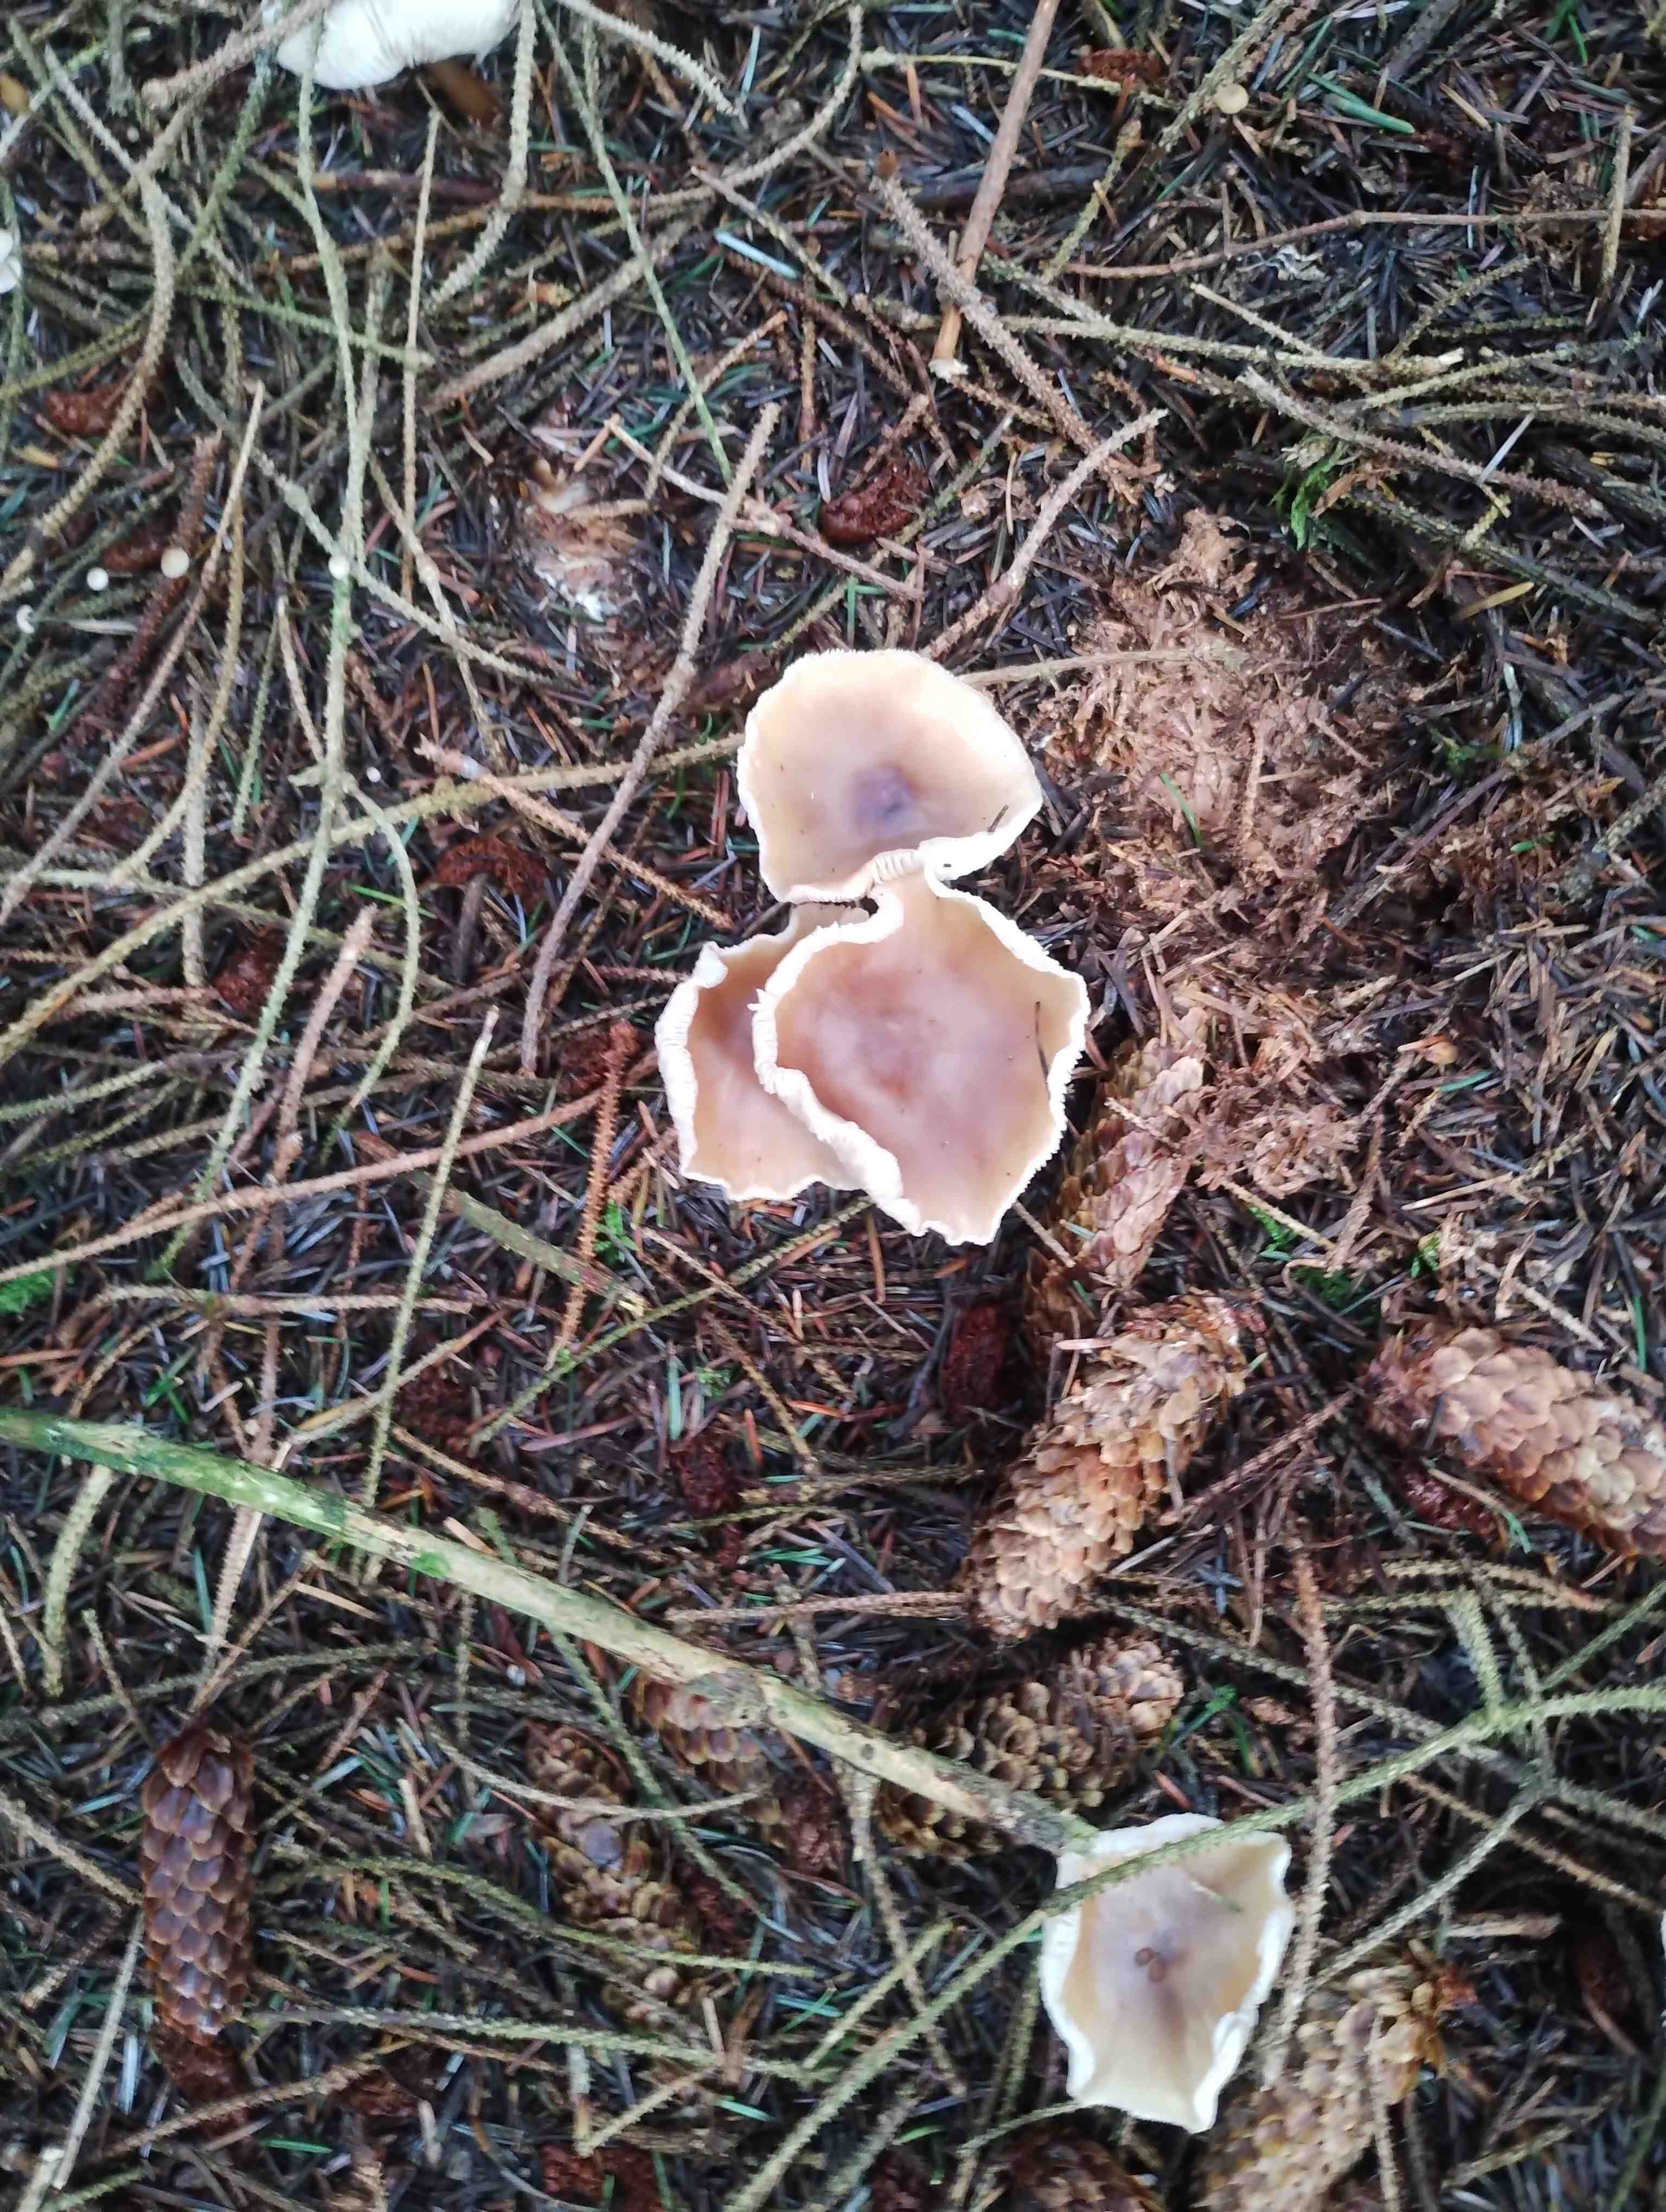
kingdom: Fungi
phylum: Basidiomycota
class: Agaricomycetes
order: Agaricales
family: Tricholomataceae
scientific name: Tricholomataceae
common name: ridderhatfamilien
